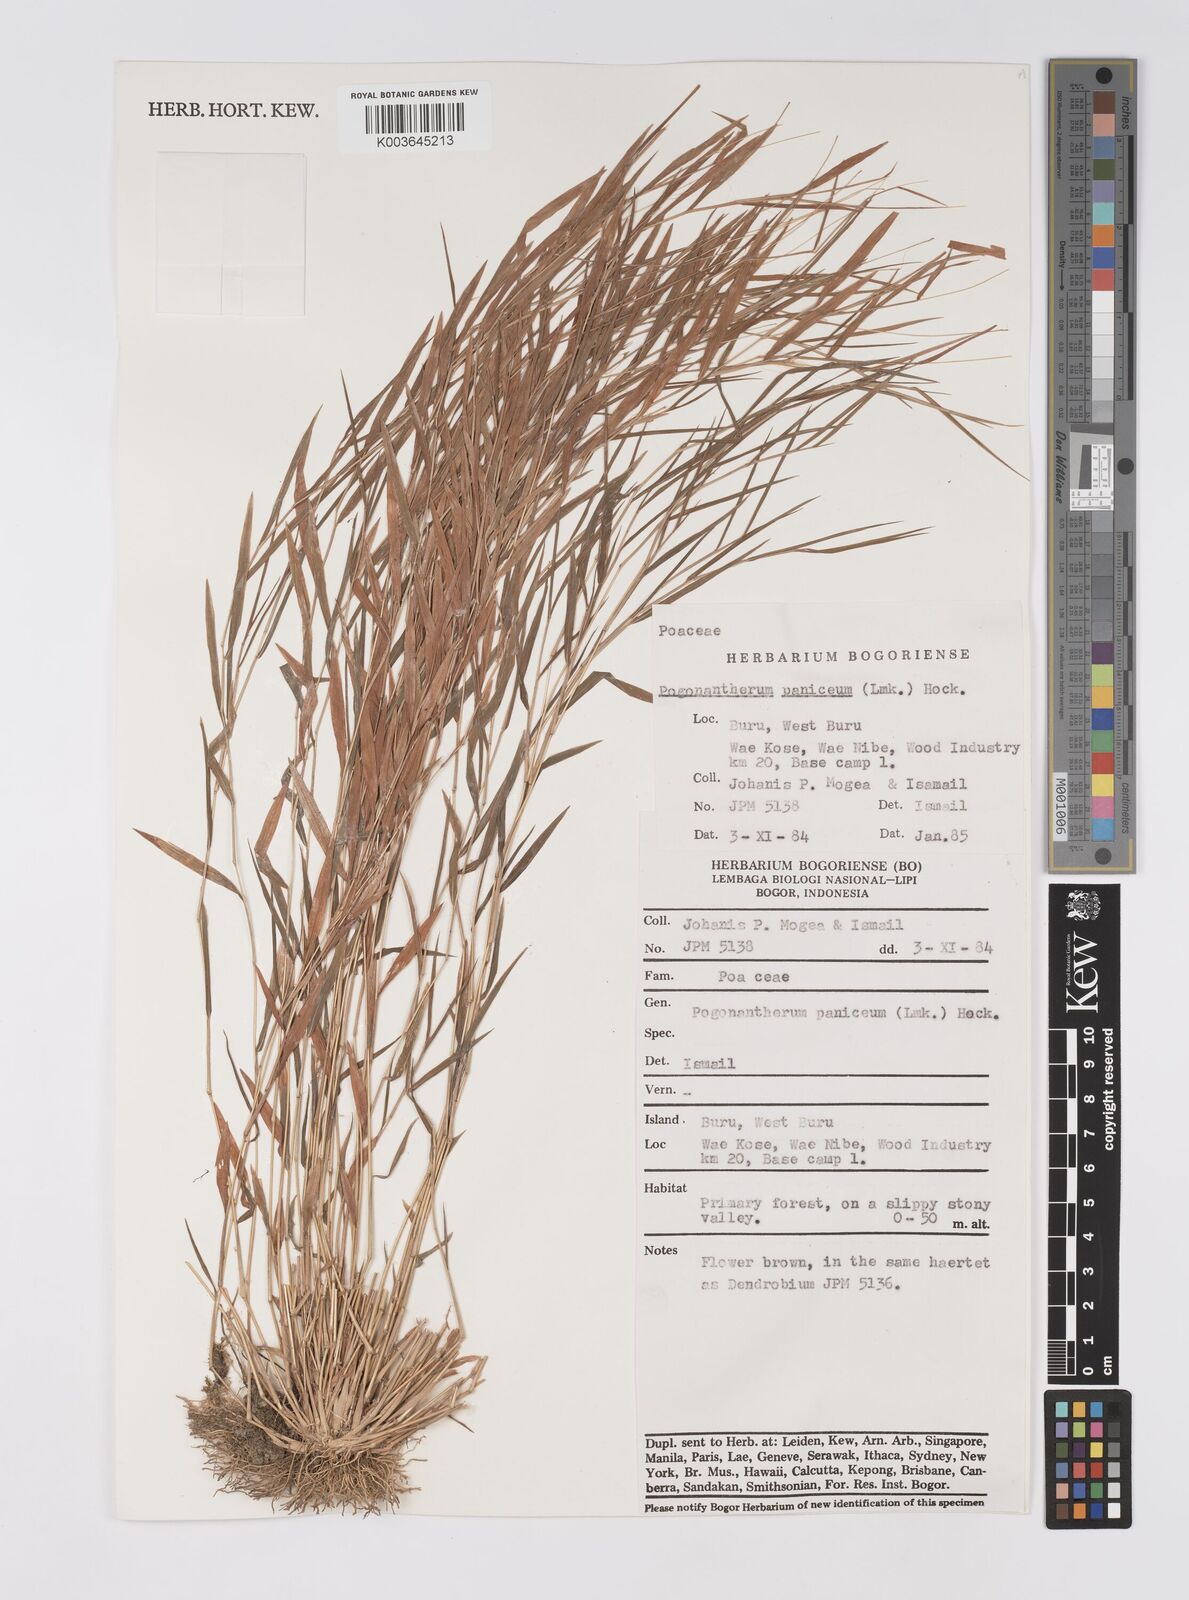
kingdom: Plantae
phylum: Tracheophyta
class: Liliopsida
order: Poales
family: Poaceae
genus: Pogonatherum
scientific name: Pogonatherum paniceum
